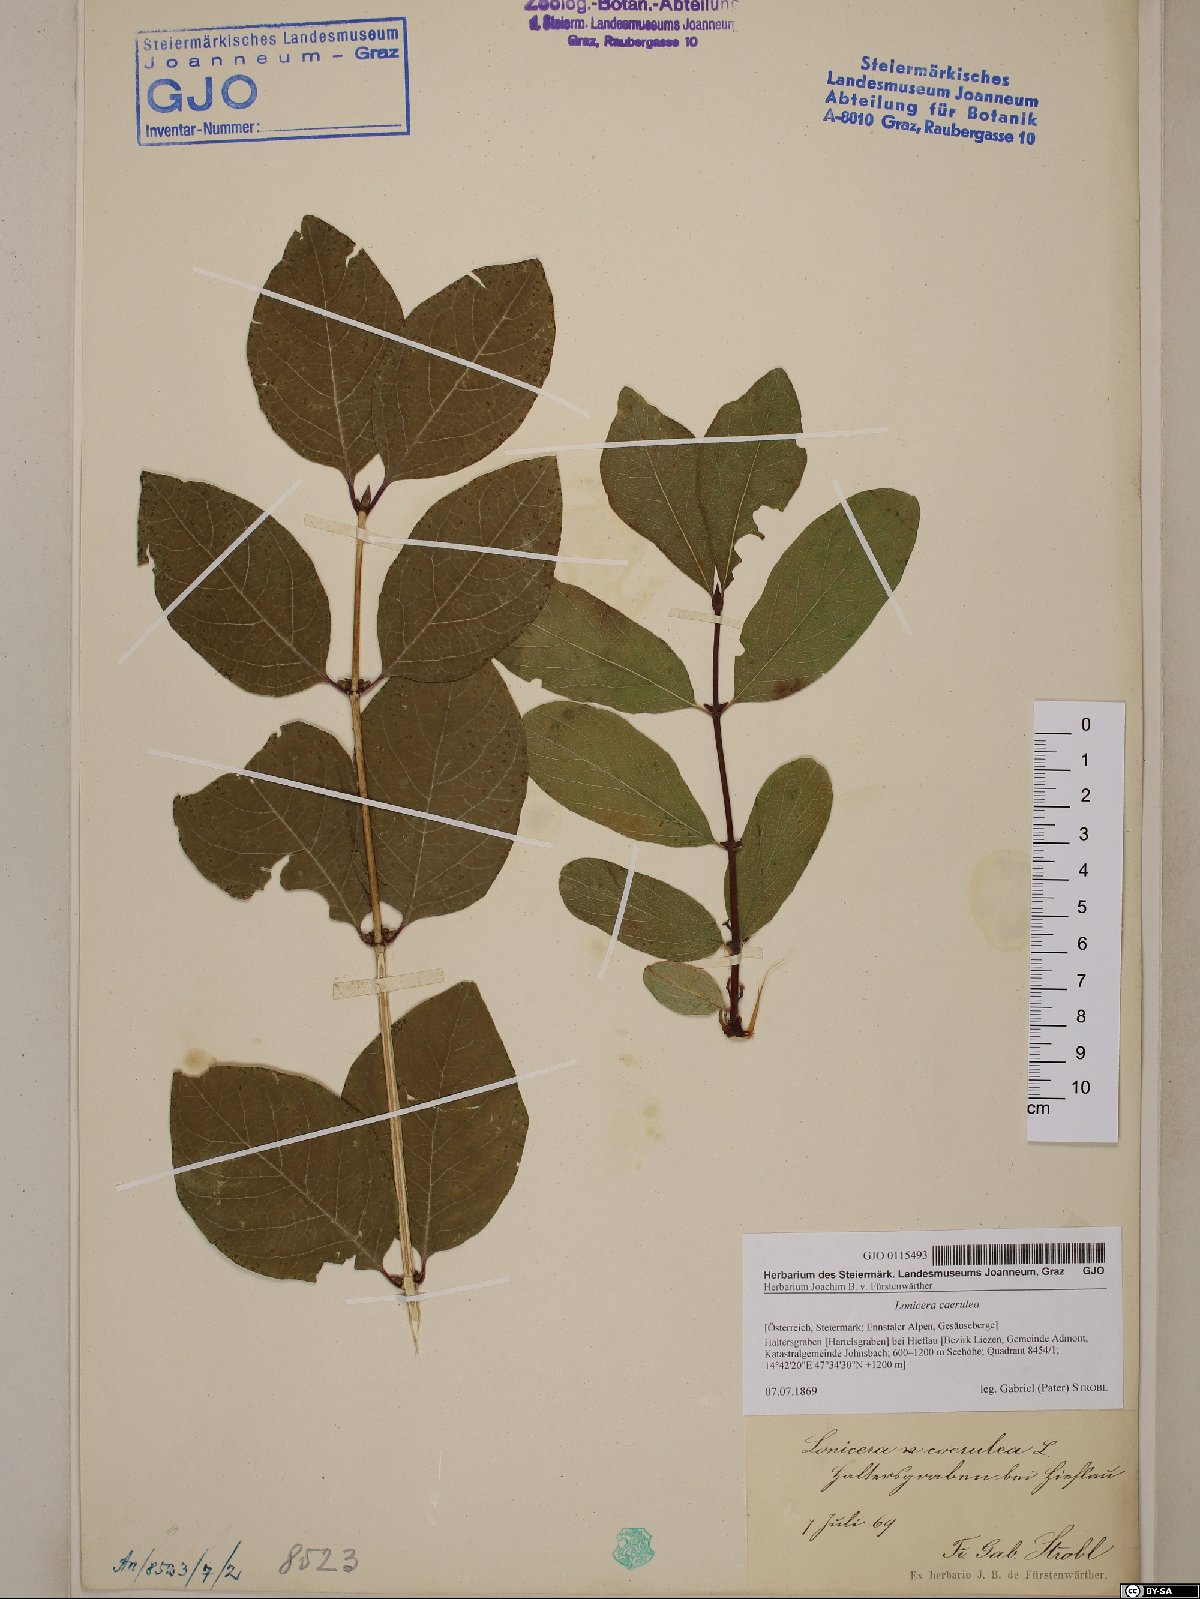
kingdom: Plantae
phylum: Tracheophyta
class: Magnoliopsida
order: Dipsacales
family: Caprifoliaceae
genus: Lonicera
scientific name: Lonicera caerulea
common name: Blue honeysuckle
